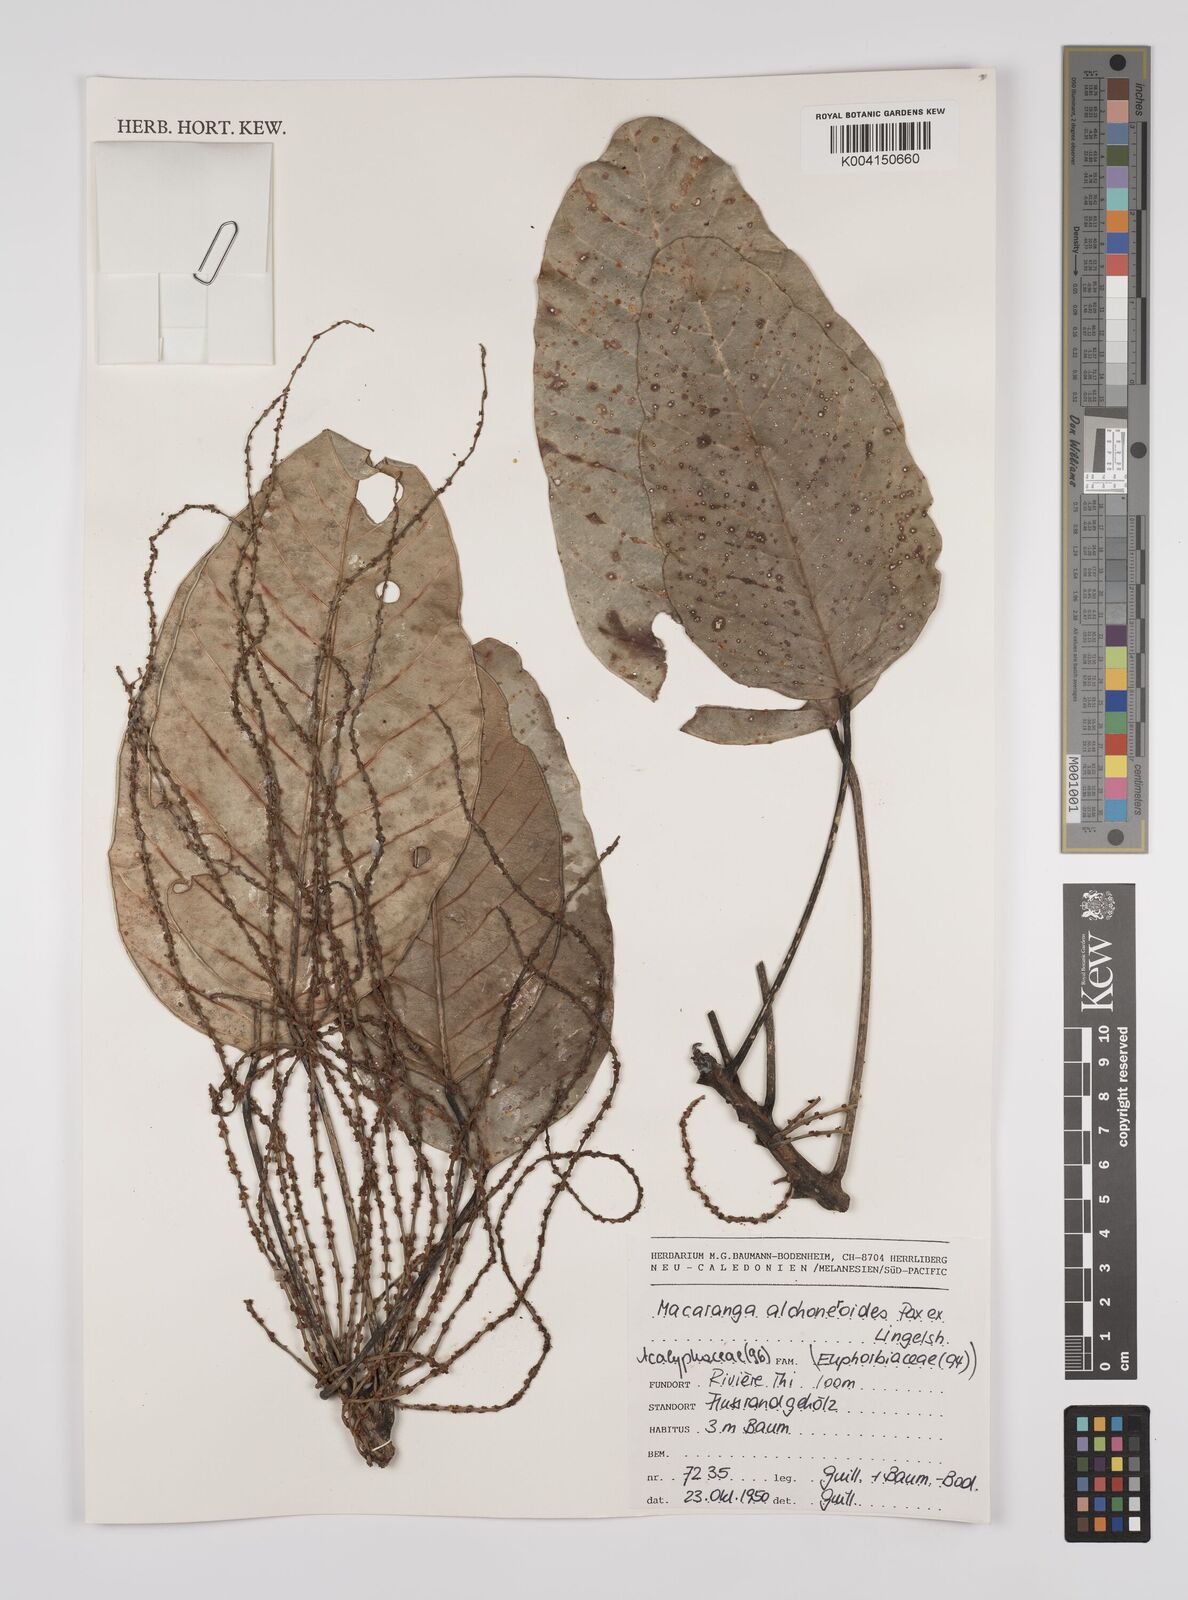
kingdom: Plantae
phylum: Tracheophyta
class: Magnoliopsida
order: Malpighiales
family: Euphorbiaceae
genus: Macaranga
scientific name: Macaranga alchorneoides
